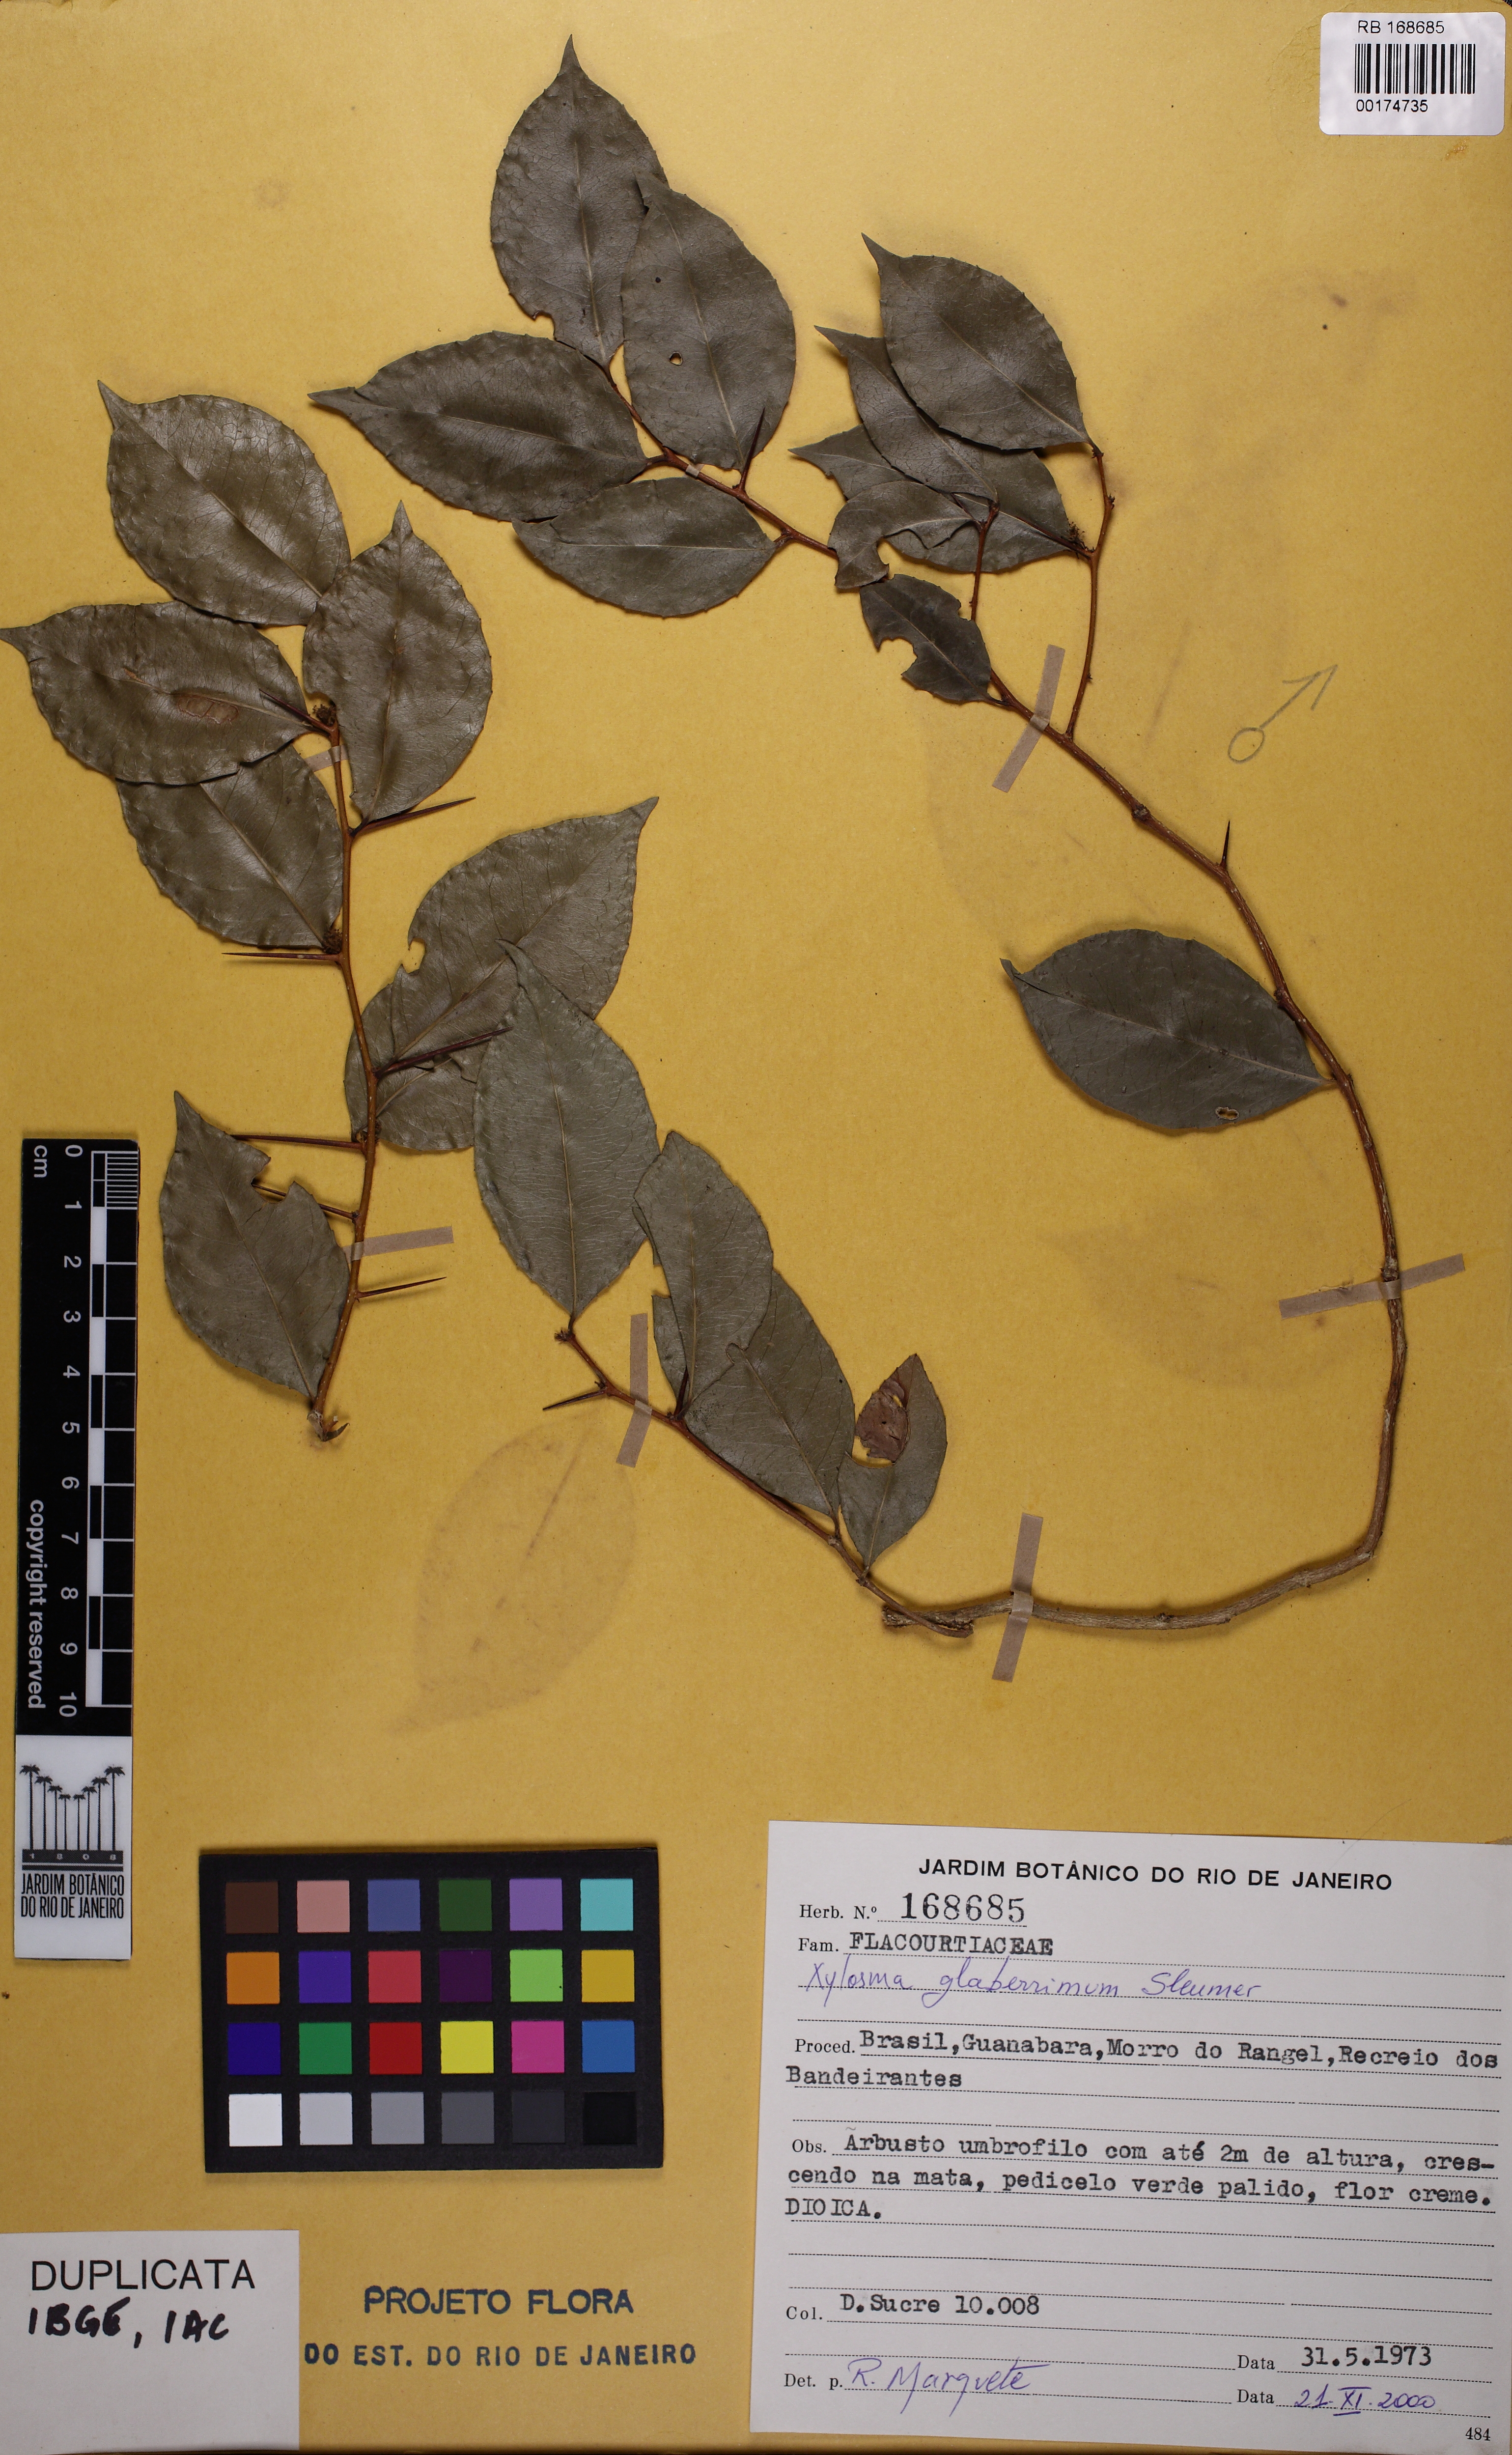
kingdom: Plantae
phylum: Tracheophyta
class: Magnoliopsida
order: Malpighiales
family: Salicaceae
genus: Xylosma
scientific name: Xylosma glaberrima
